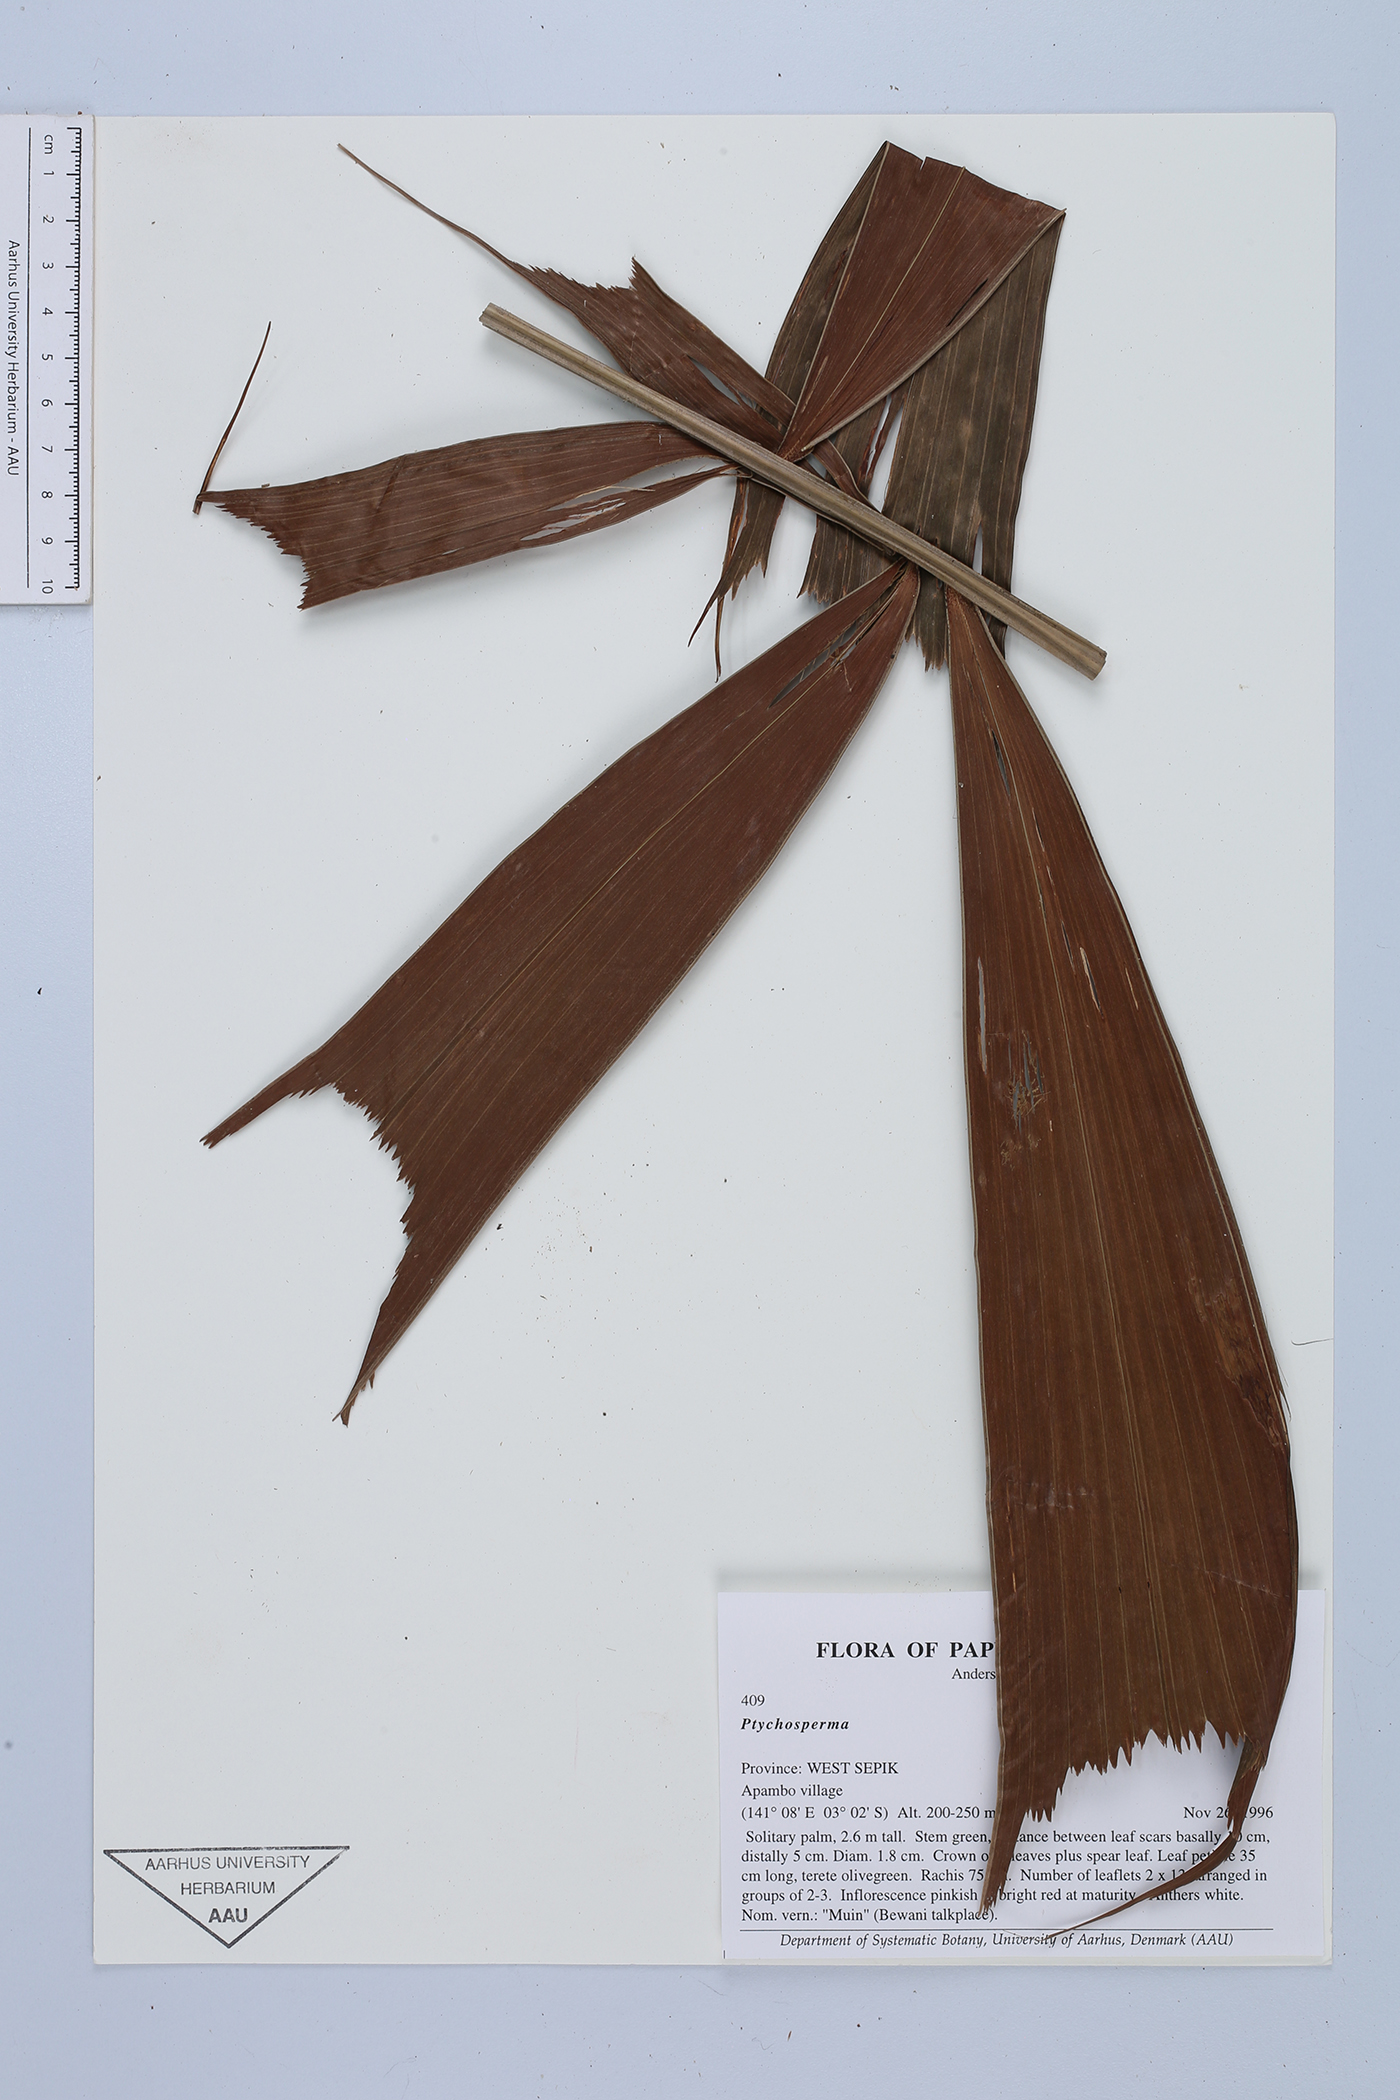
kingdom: Plantae
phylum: Tracheophyta
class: Liliopsida
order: Arecales
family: Arecaceae
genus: Ptychosperma
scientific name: Ptychosperma
